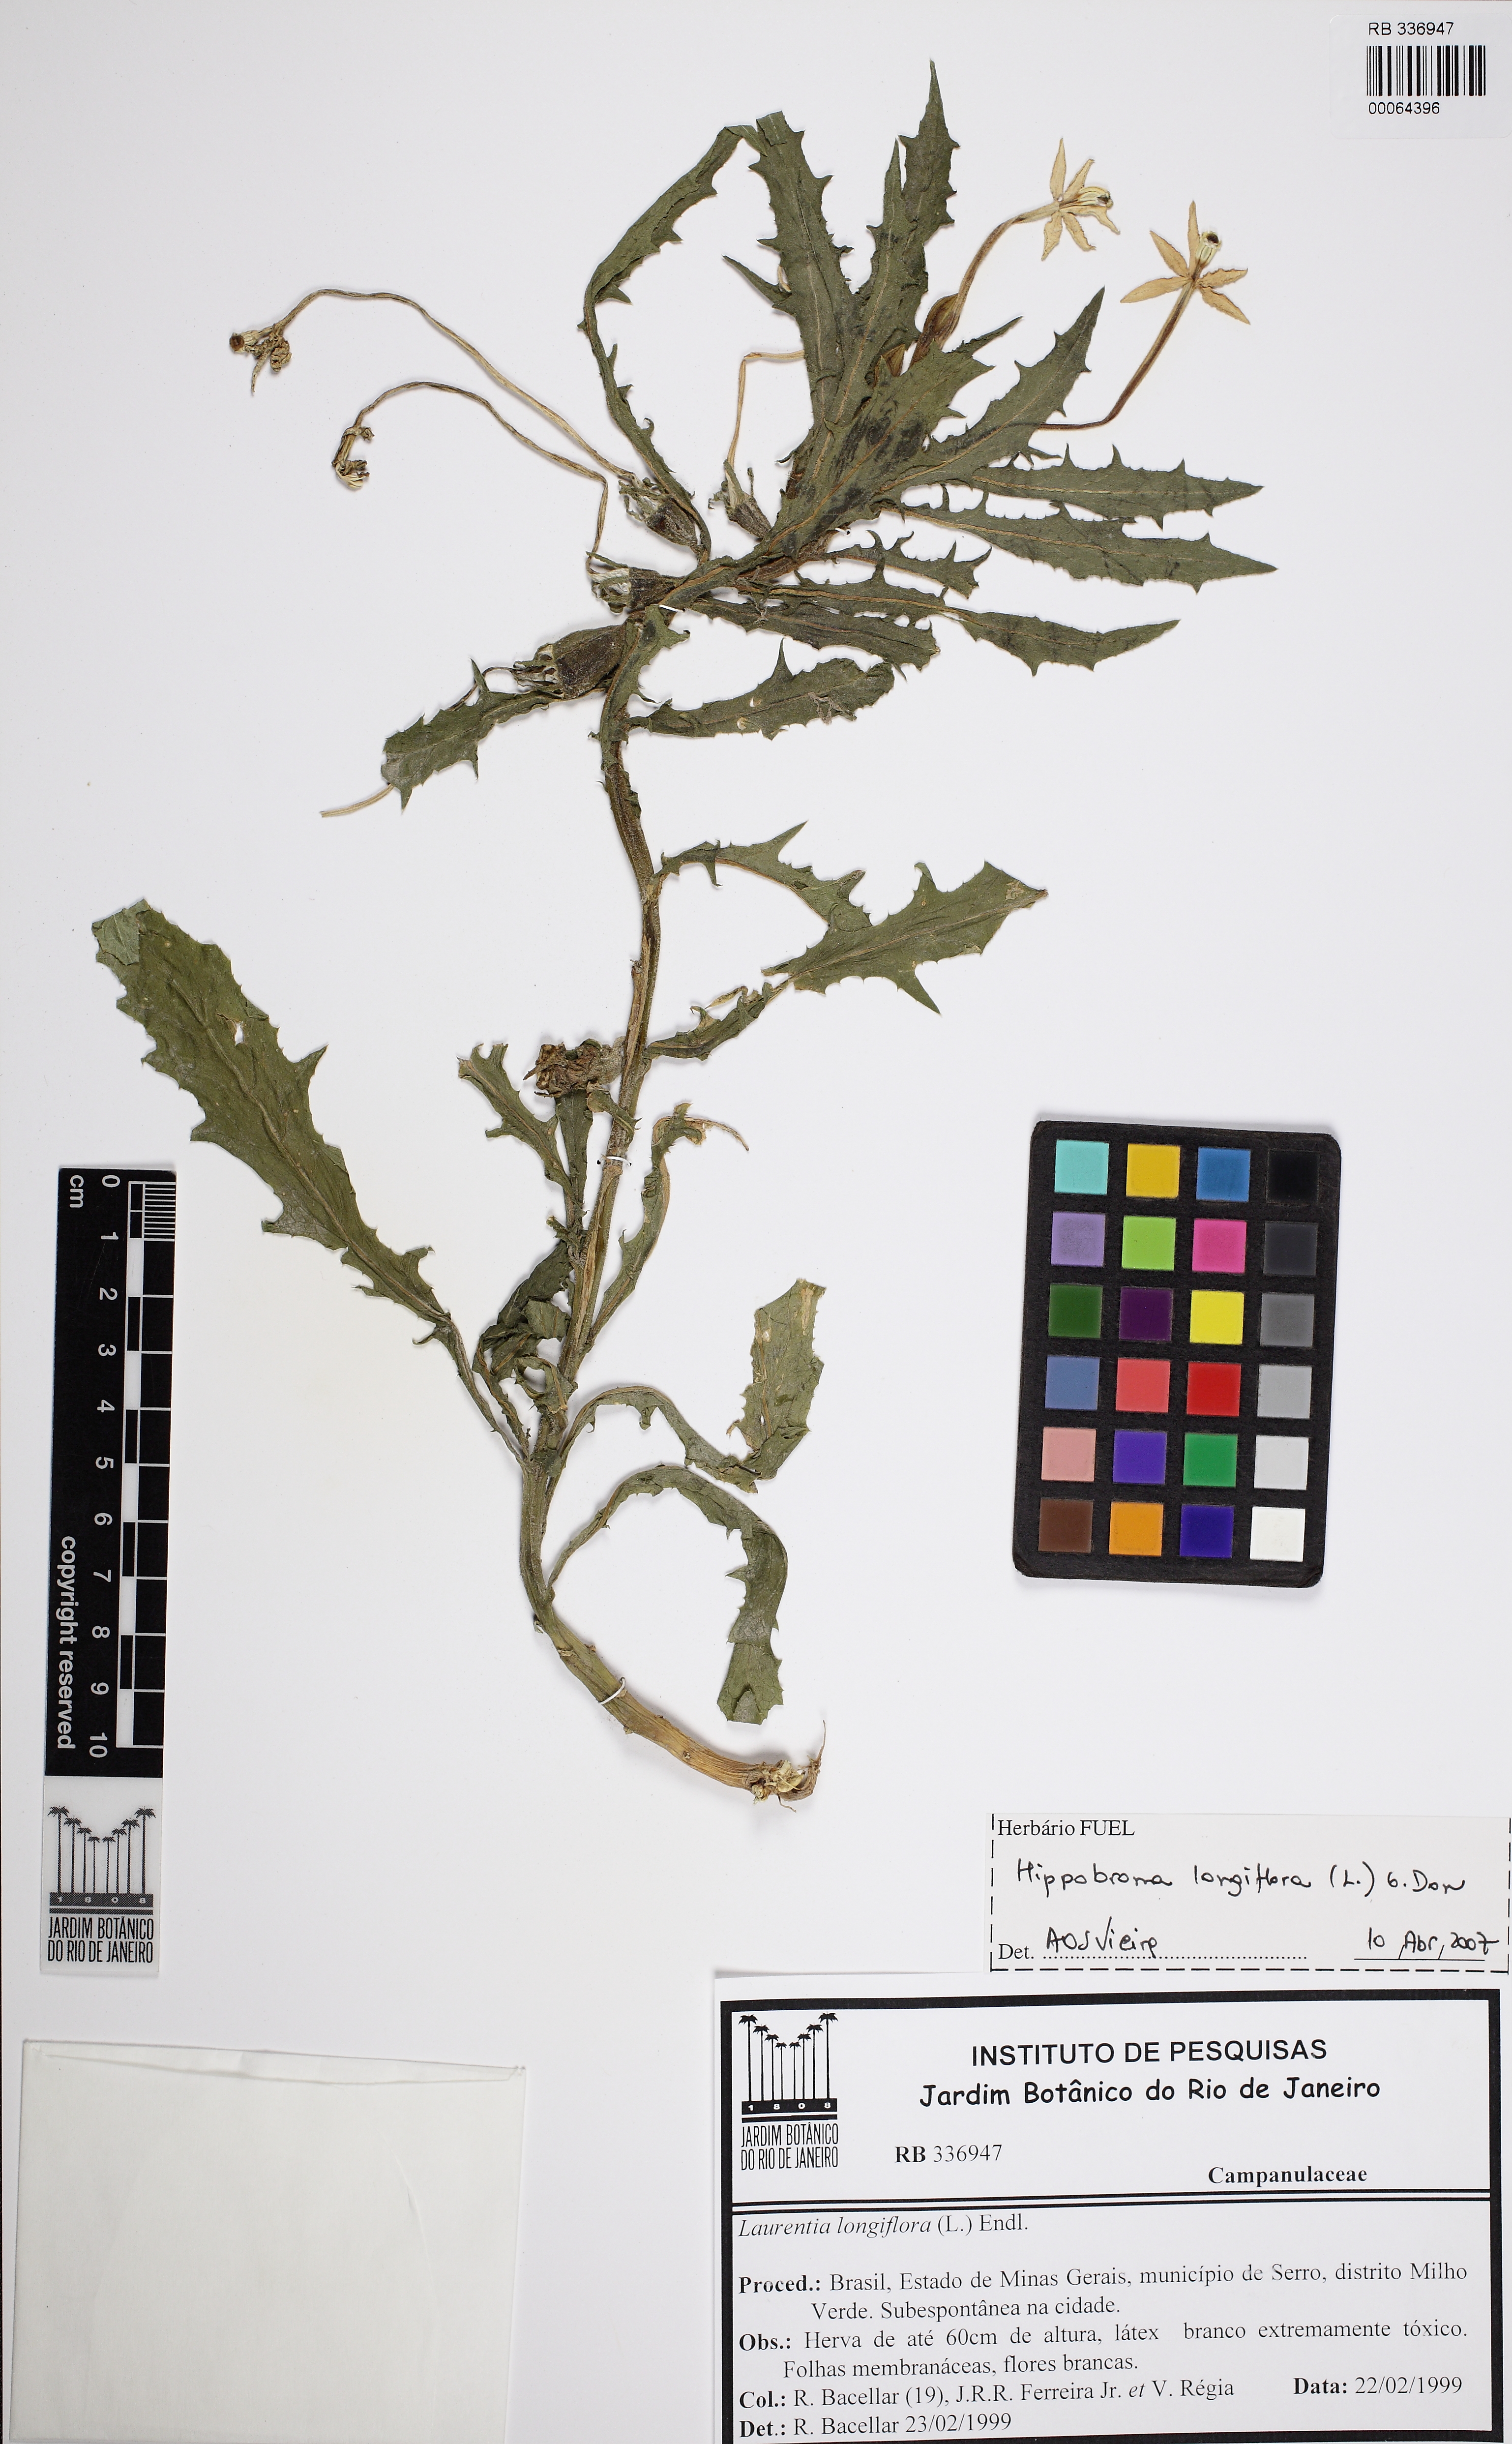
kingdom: Plantae
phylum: Tracheophyta
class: Magnoliopsida
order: Asterales
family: Campanulaceae
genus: Hippobroma
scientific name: Hippobroma longiflora
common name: Madamfate
